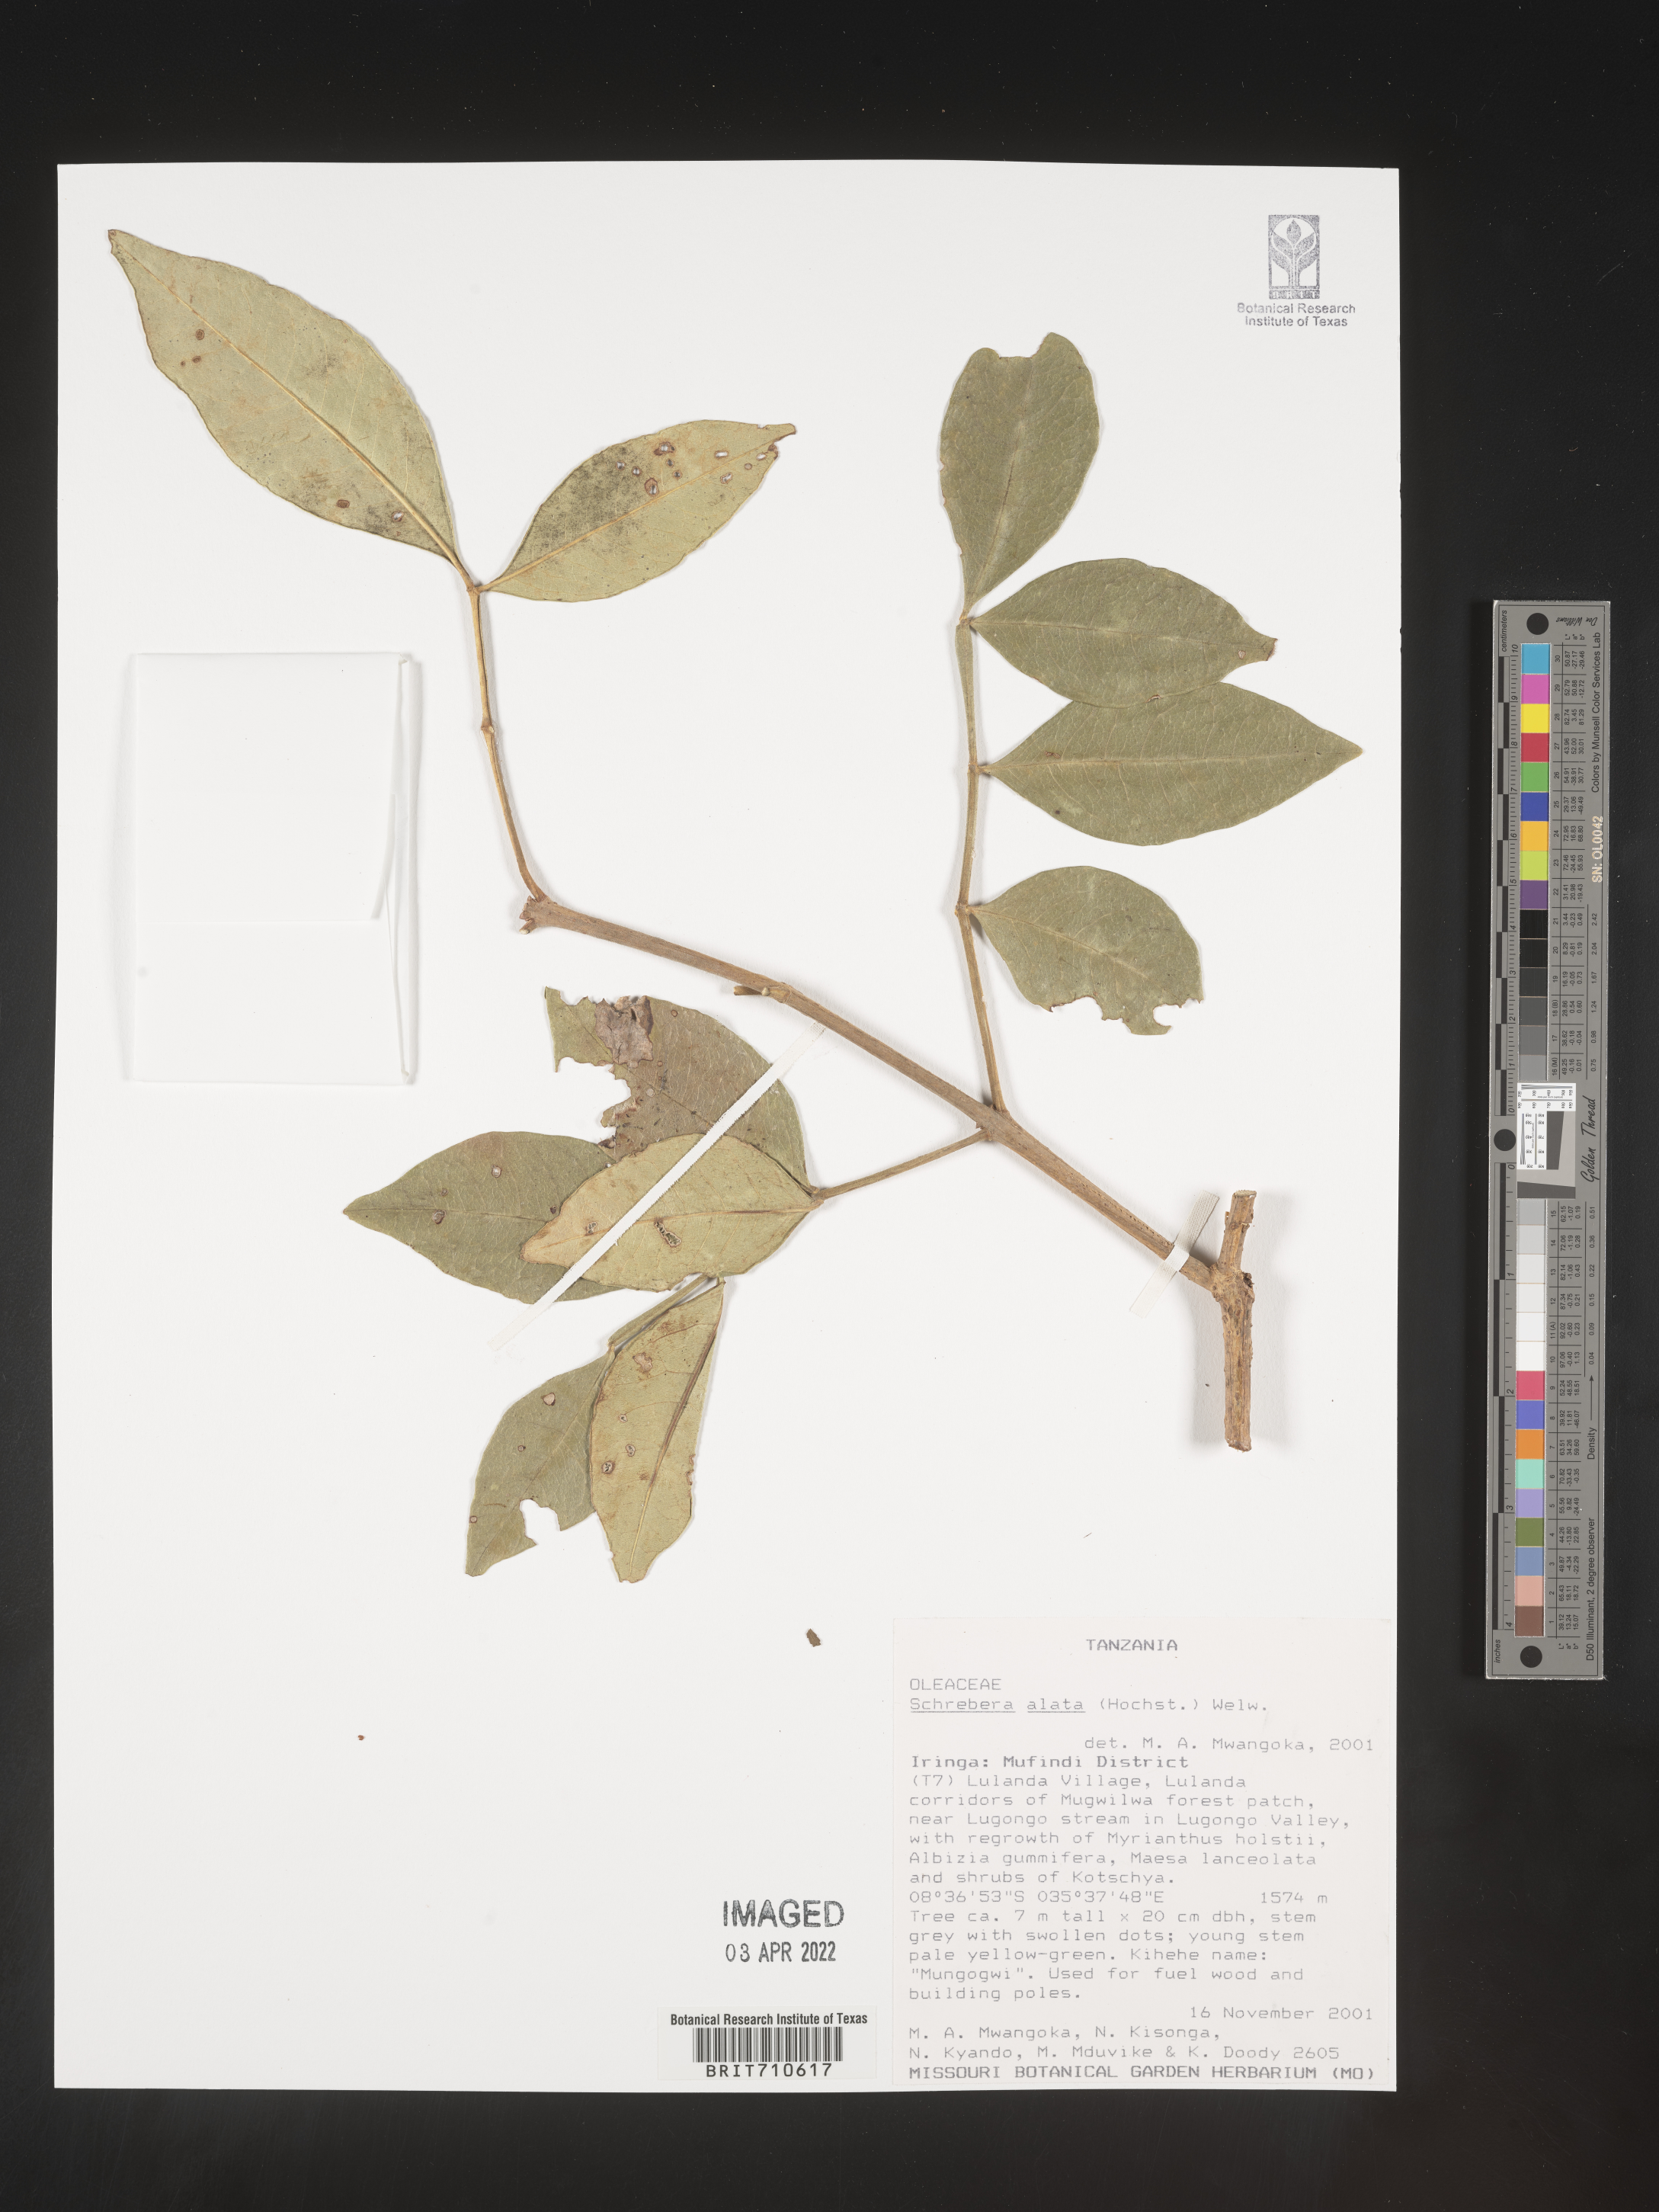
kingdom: Plantae
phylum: Tracheophyta
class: Magnoliopsida
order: Lamiales
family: Oleaceae
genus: Schrebera
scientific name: Schrebera
